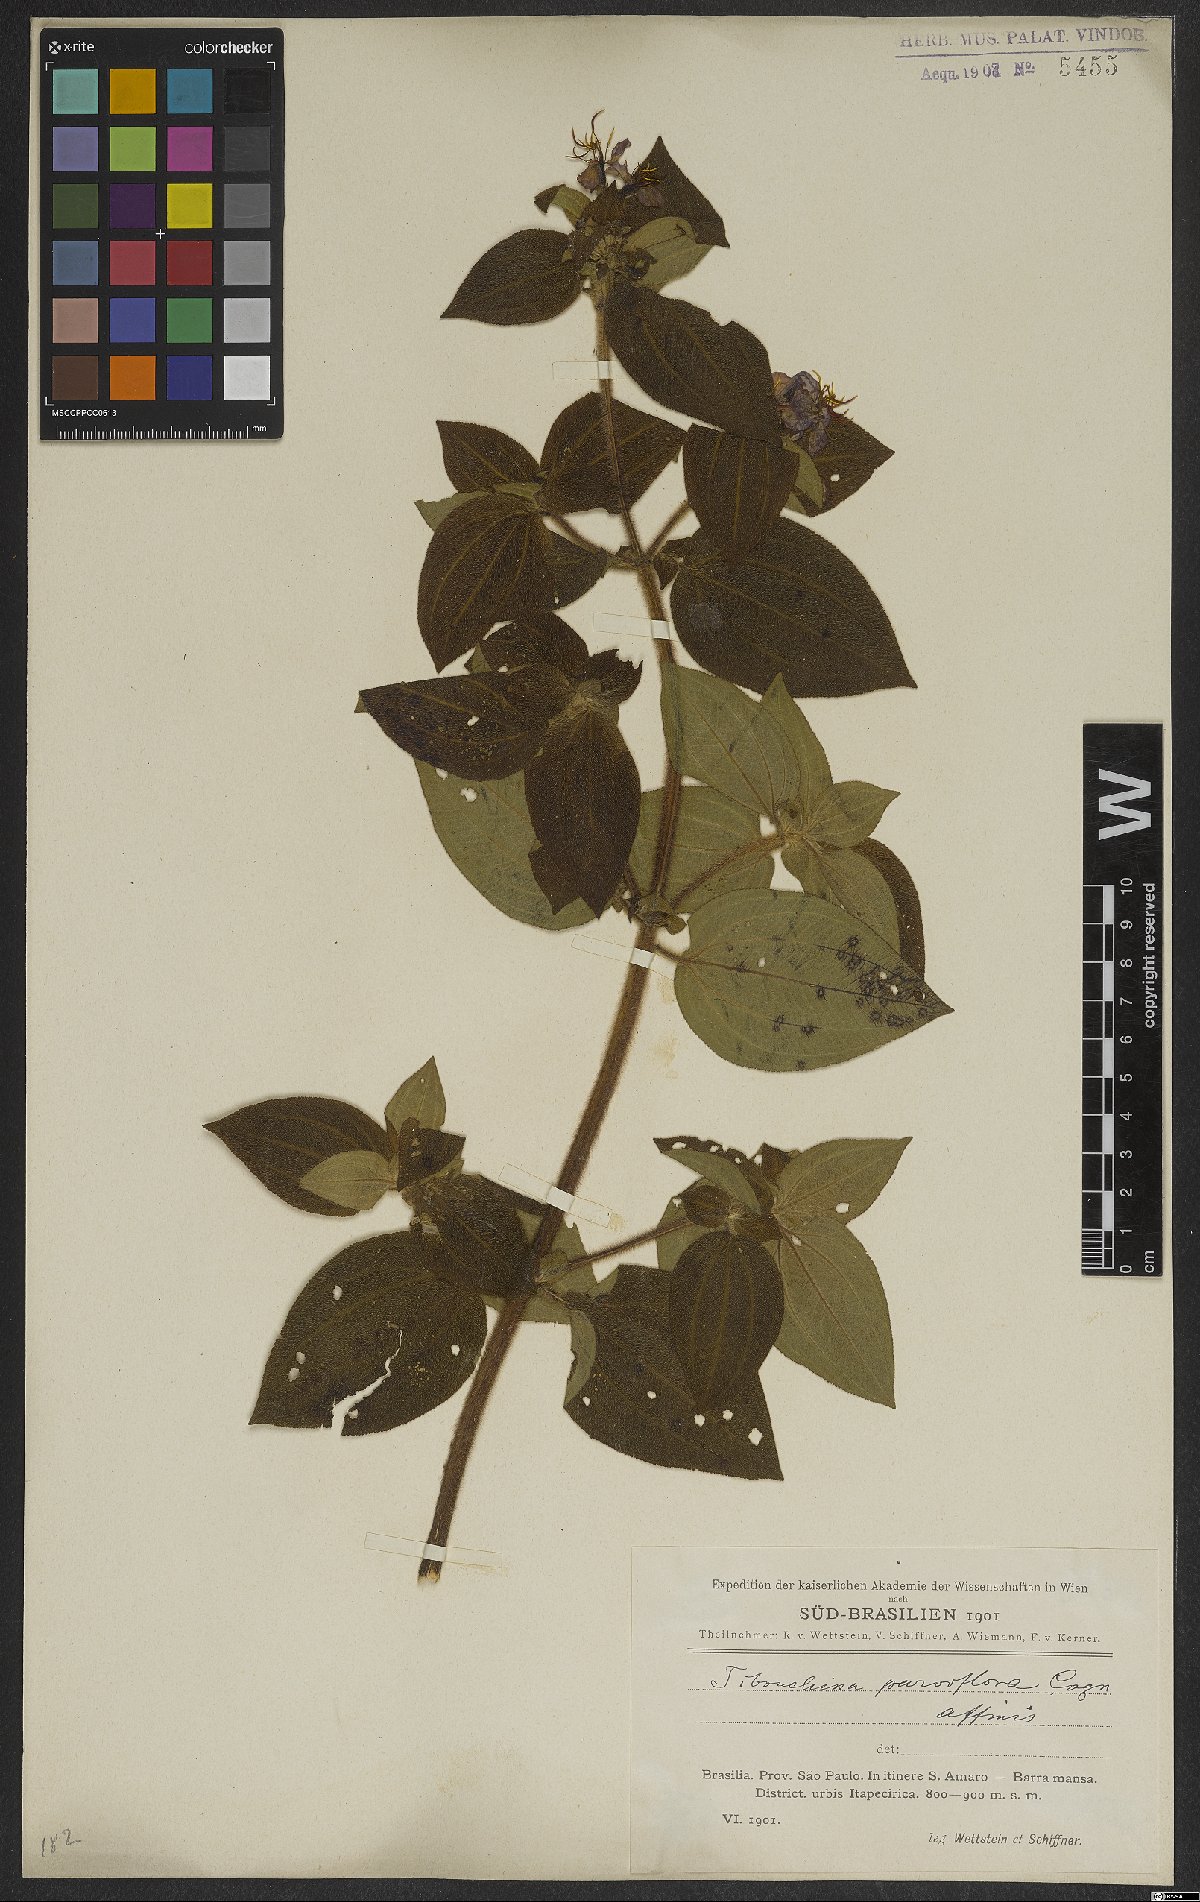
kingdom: Plantae
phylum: Tracheophyta
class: Magnoliopsida
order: Myrtales
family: Melastomataceae
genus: Chaetogastra
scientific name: Chaetogastra parviflora
